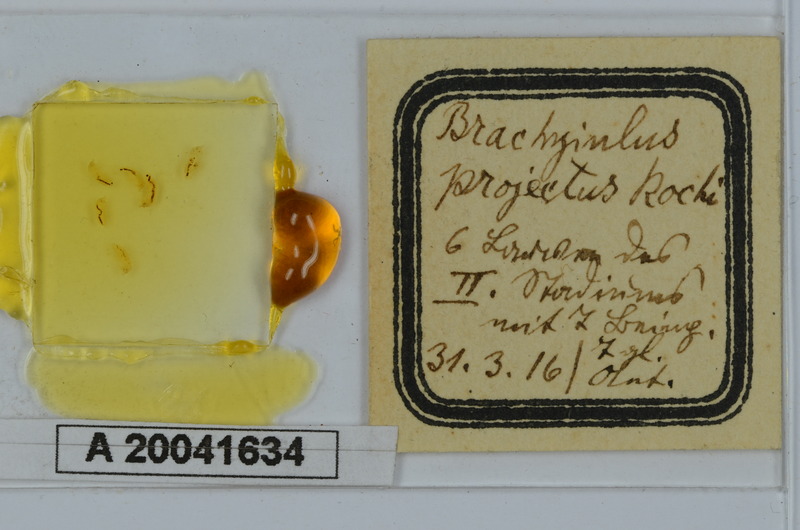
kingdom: Animalia
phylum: Arthropoda
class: Diplopoda
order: Julida
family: Julidae
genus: Megaphyllum
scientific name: Megaphyllum projectum
